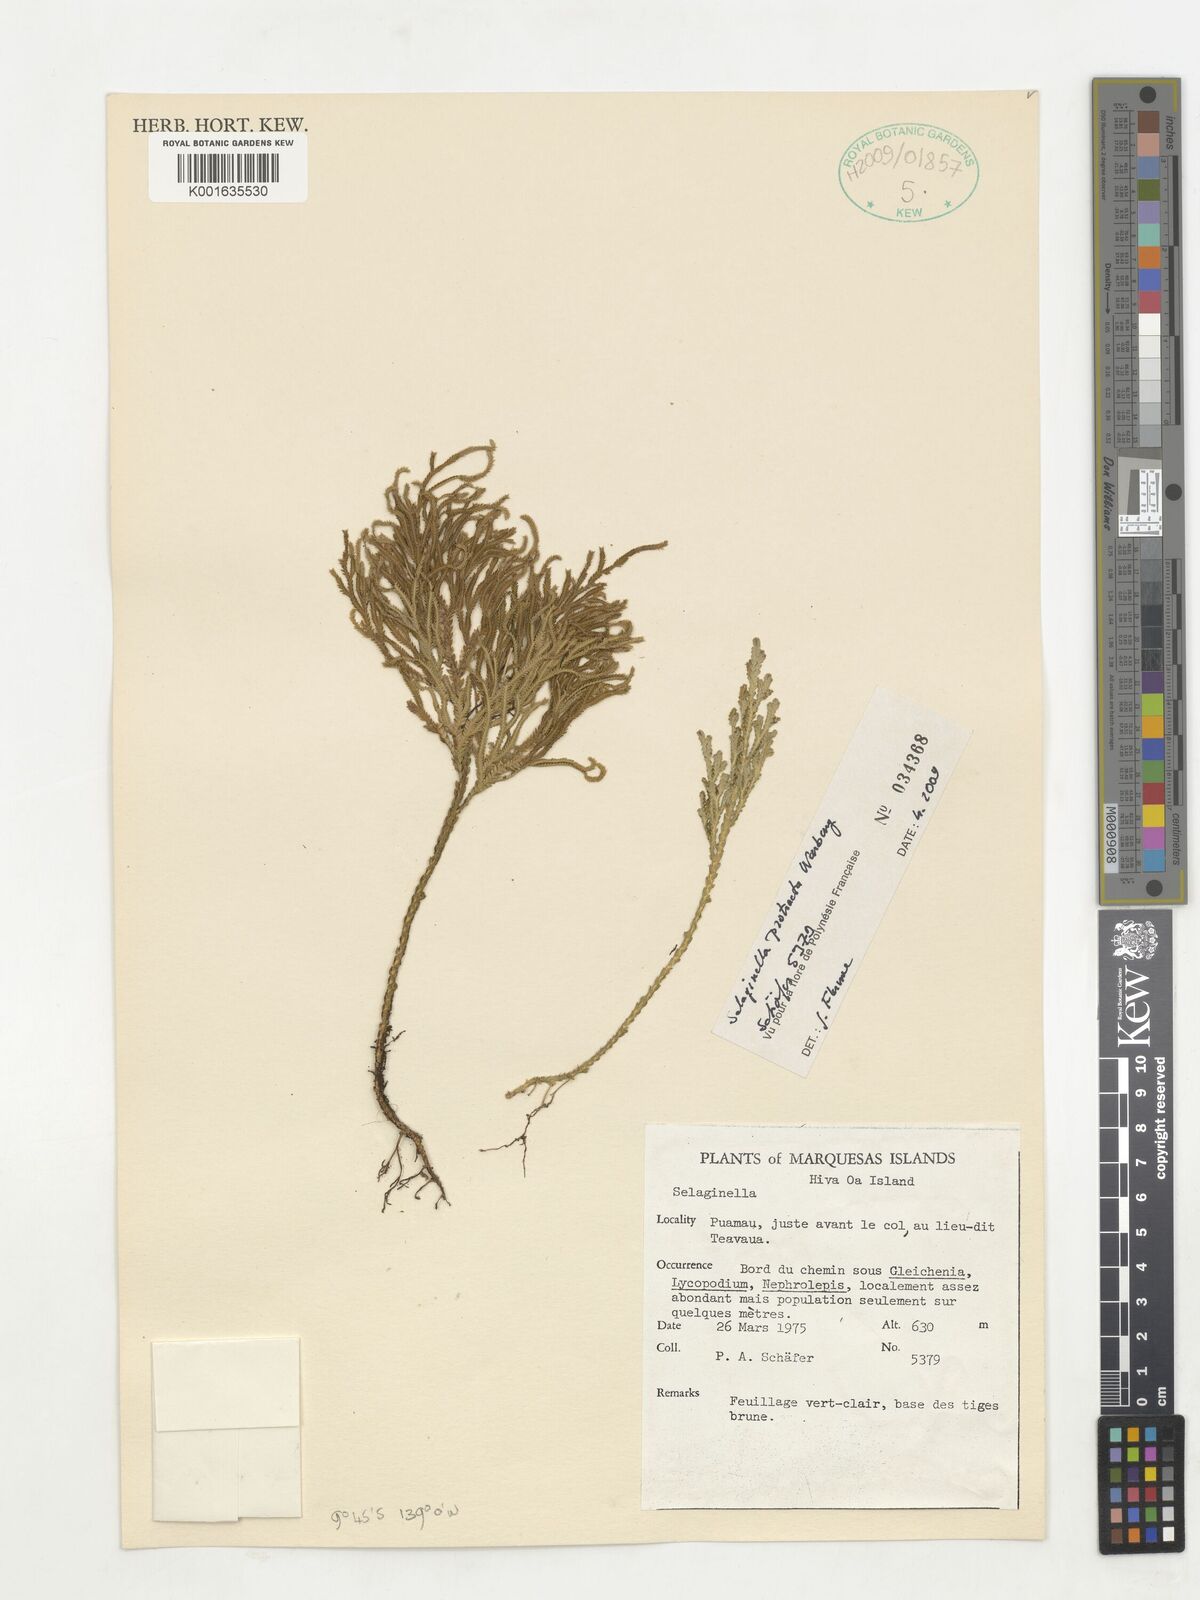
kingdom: Plantae
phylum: Tracheophyta
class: Lycopodiopsida
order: Selaginellales
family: Selaginellaceae
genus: Selaginella
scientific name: Selaginella arbuscula
